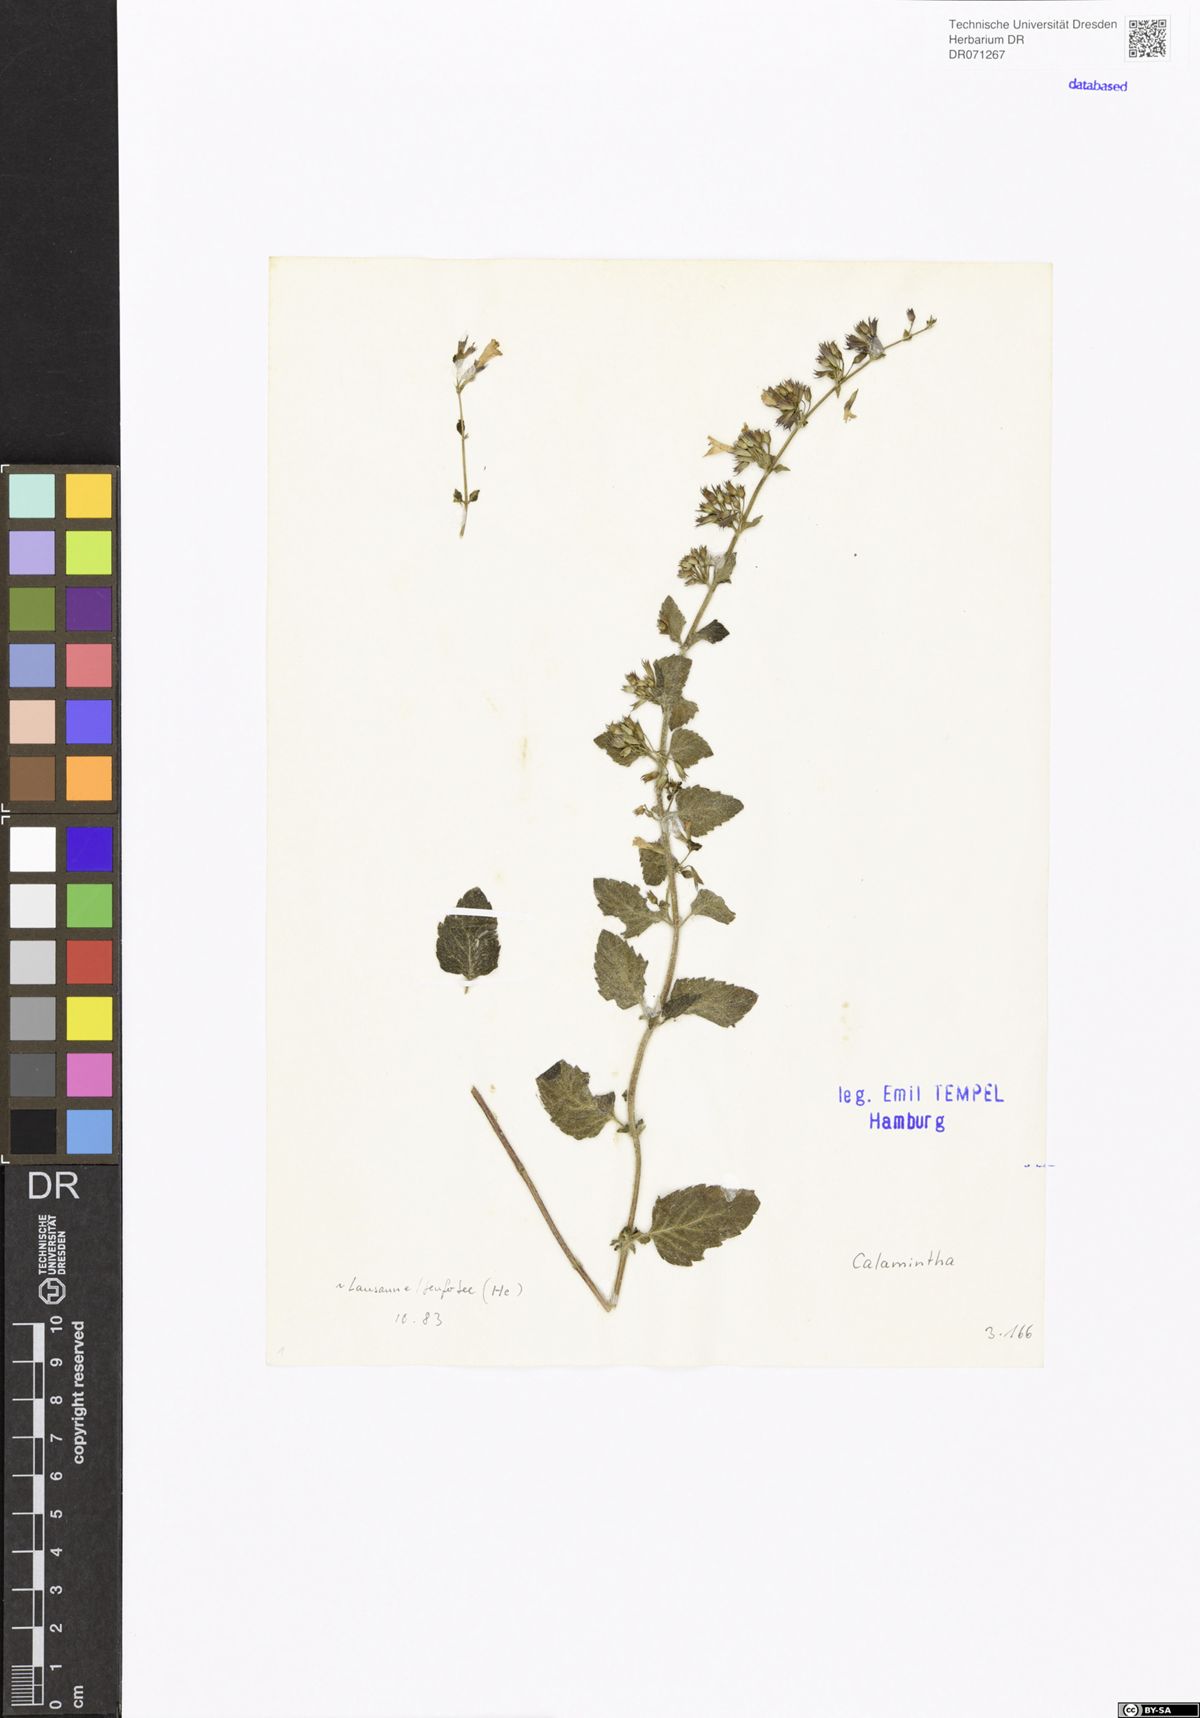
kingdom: Plantae
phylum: Tracheophyta
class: Magnoliopsida
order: Lamiales
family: Lamiaceae
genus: Calamintha
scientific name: Calamintha
